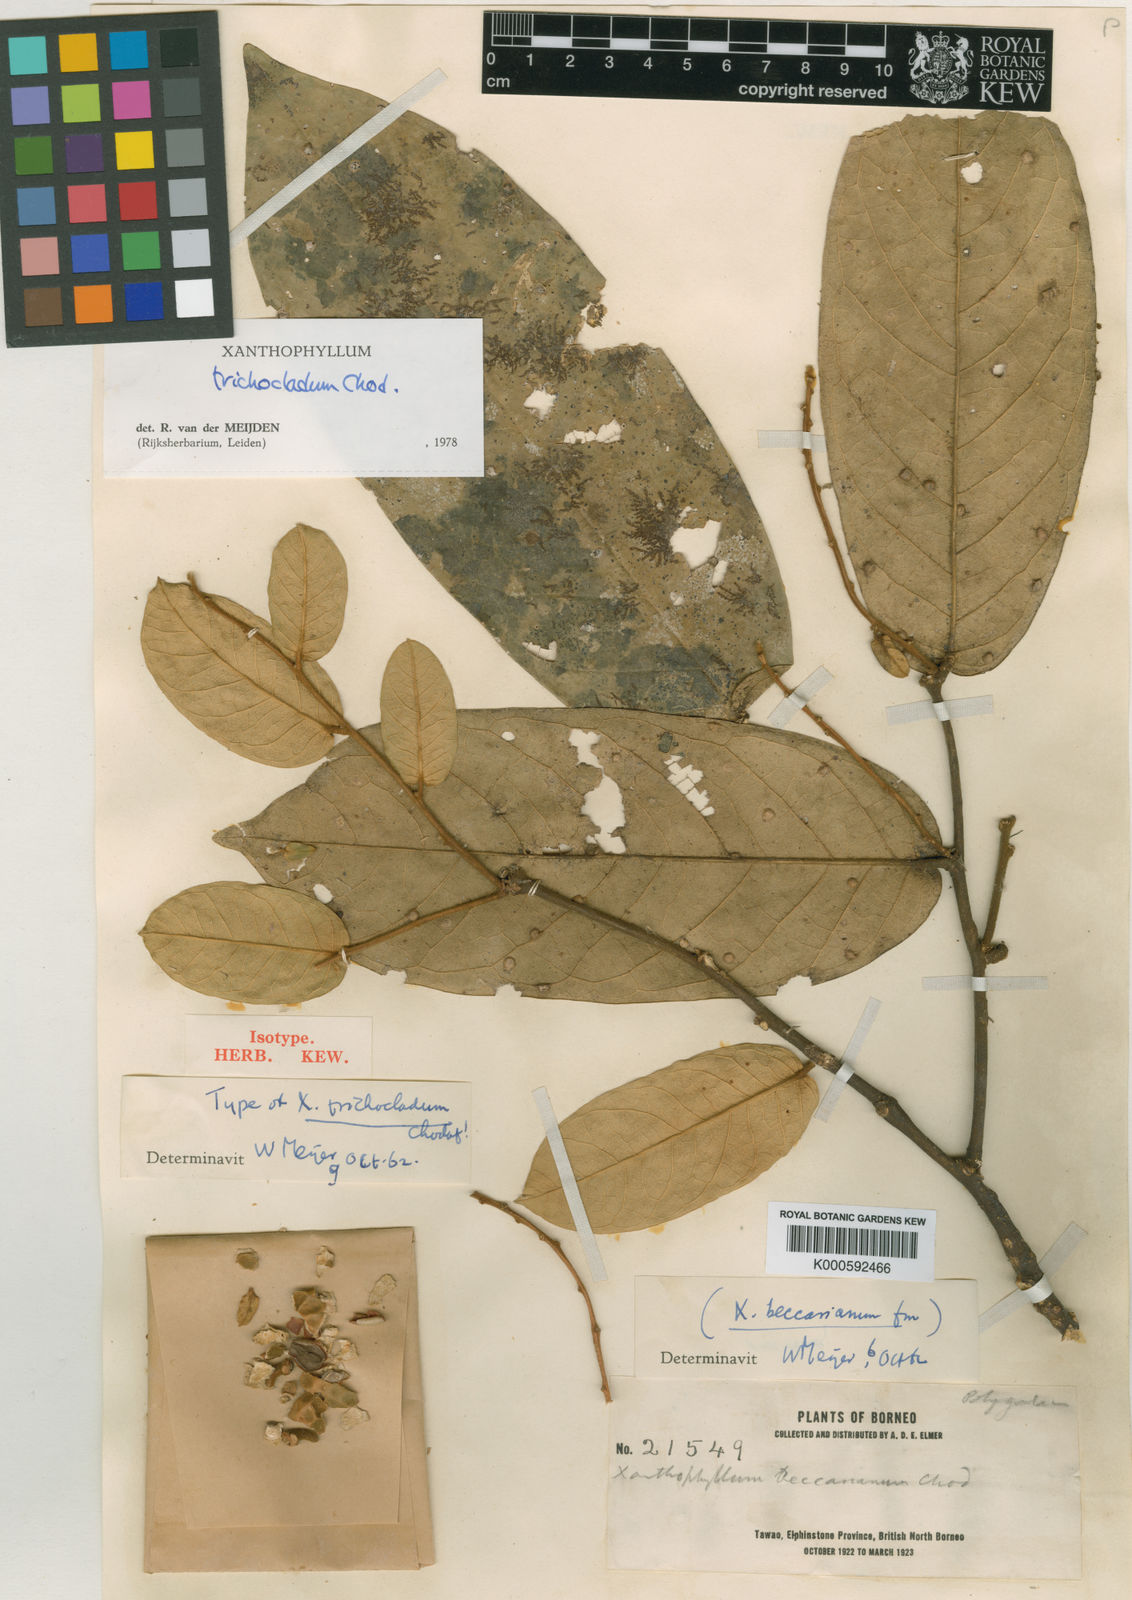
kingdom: Plantae
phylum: Tracheophyta
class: Magnoliopsida
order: Fabales
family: Polygalaceae
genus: Xanthophyllum
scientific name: Xanthophyllum trichocladum
